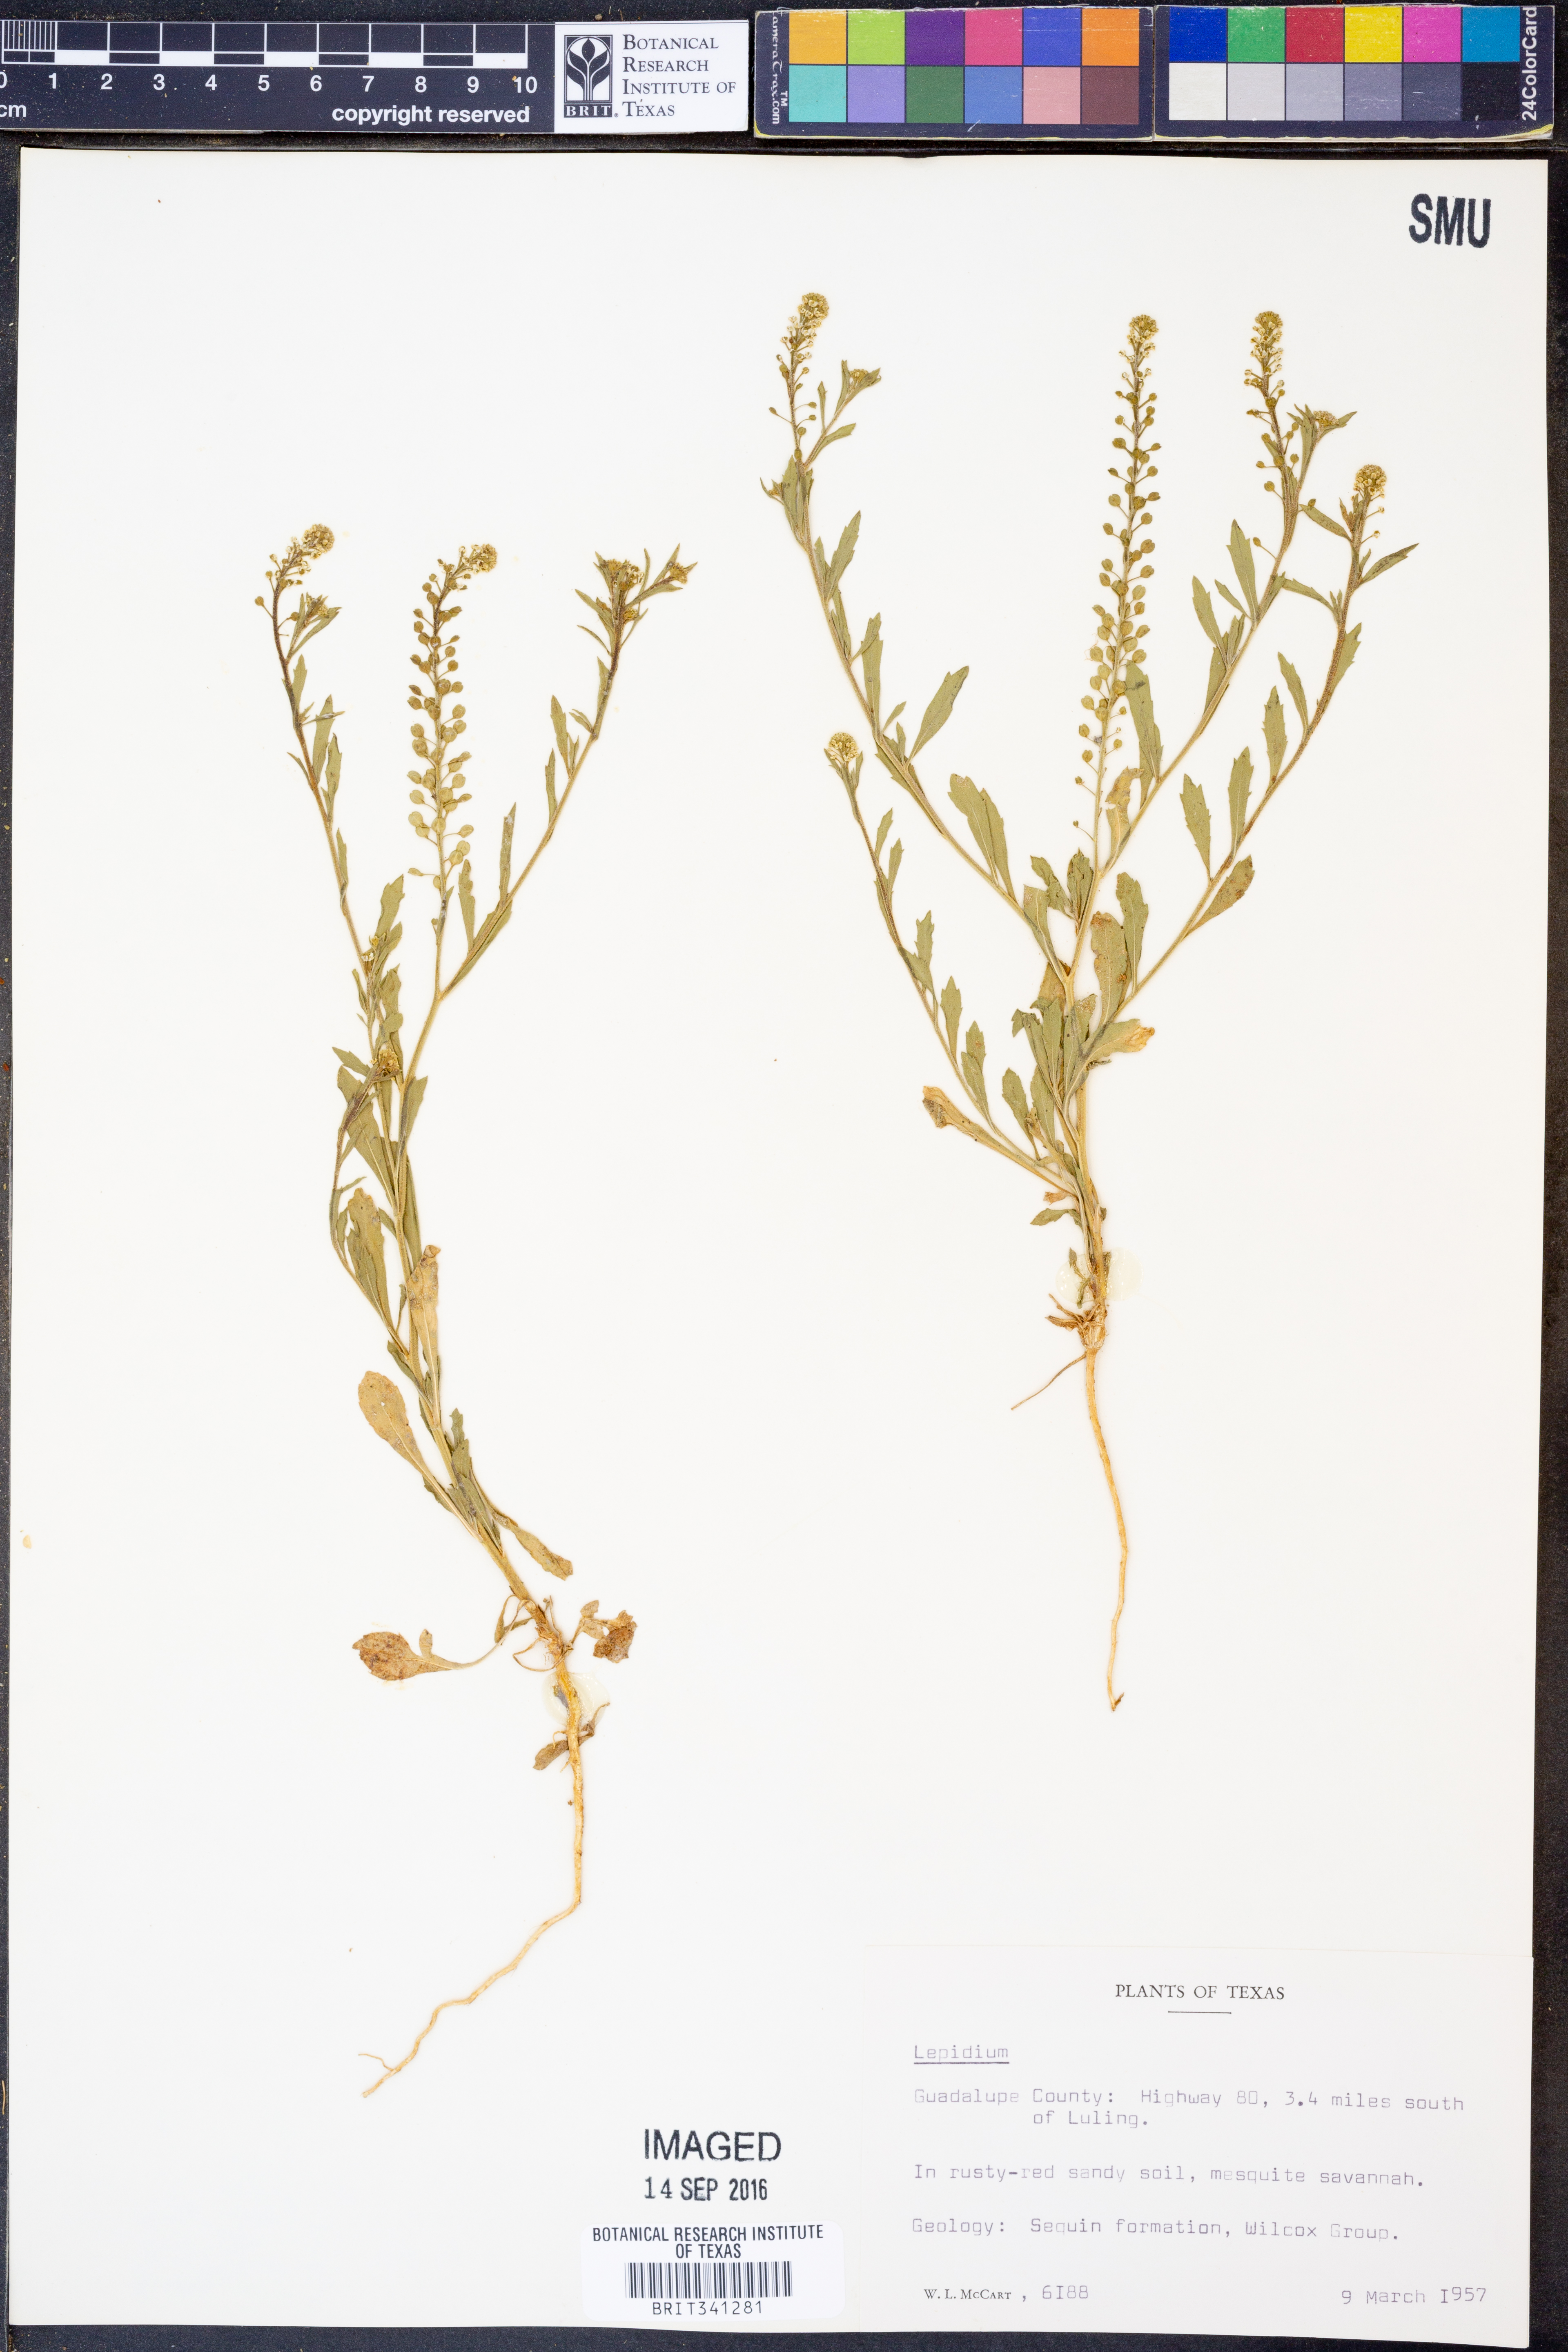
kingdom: Plantae
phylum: Tracheophyta
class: Magnoliopsida
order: Brassicales
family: Brassicaceae
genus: Lepidium
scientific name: Lepidium
